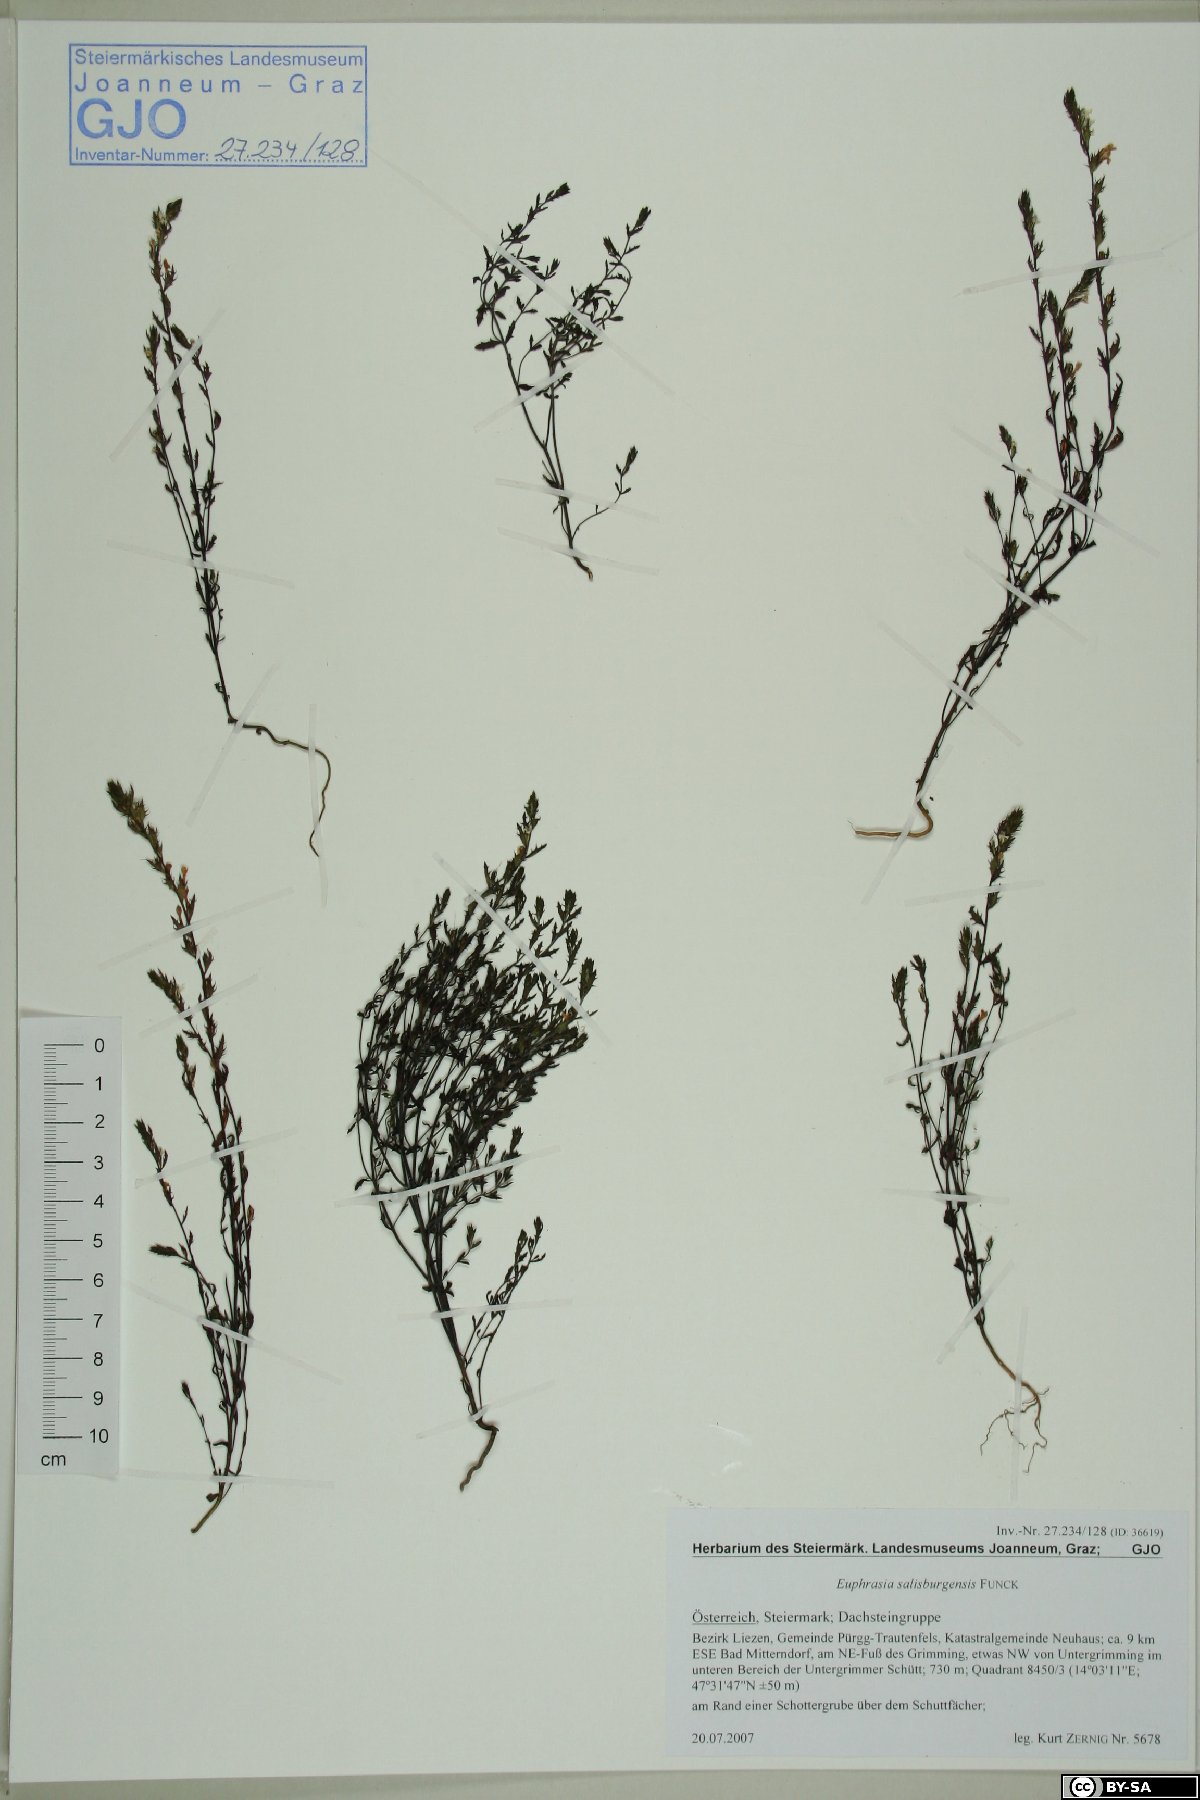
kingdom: Plantae
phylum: Tracheophyta
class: Magnoliopsida
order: Lamiales
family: Orobanchaceae
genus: Euphrasia
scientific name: Euphrasia salisburgensis
